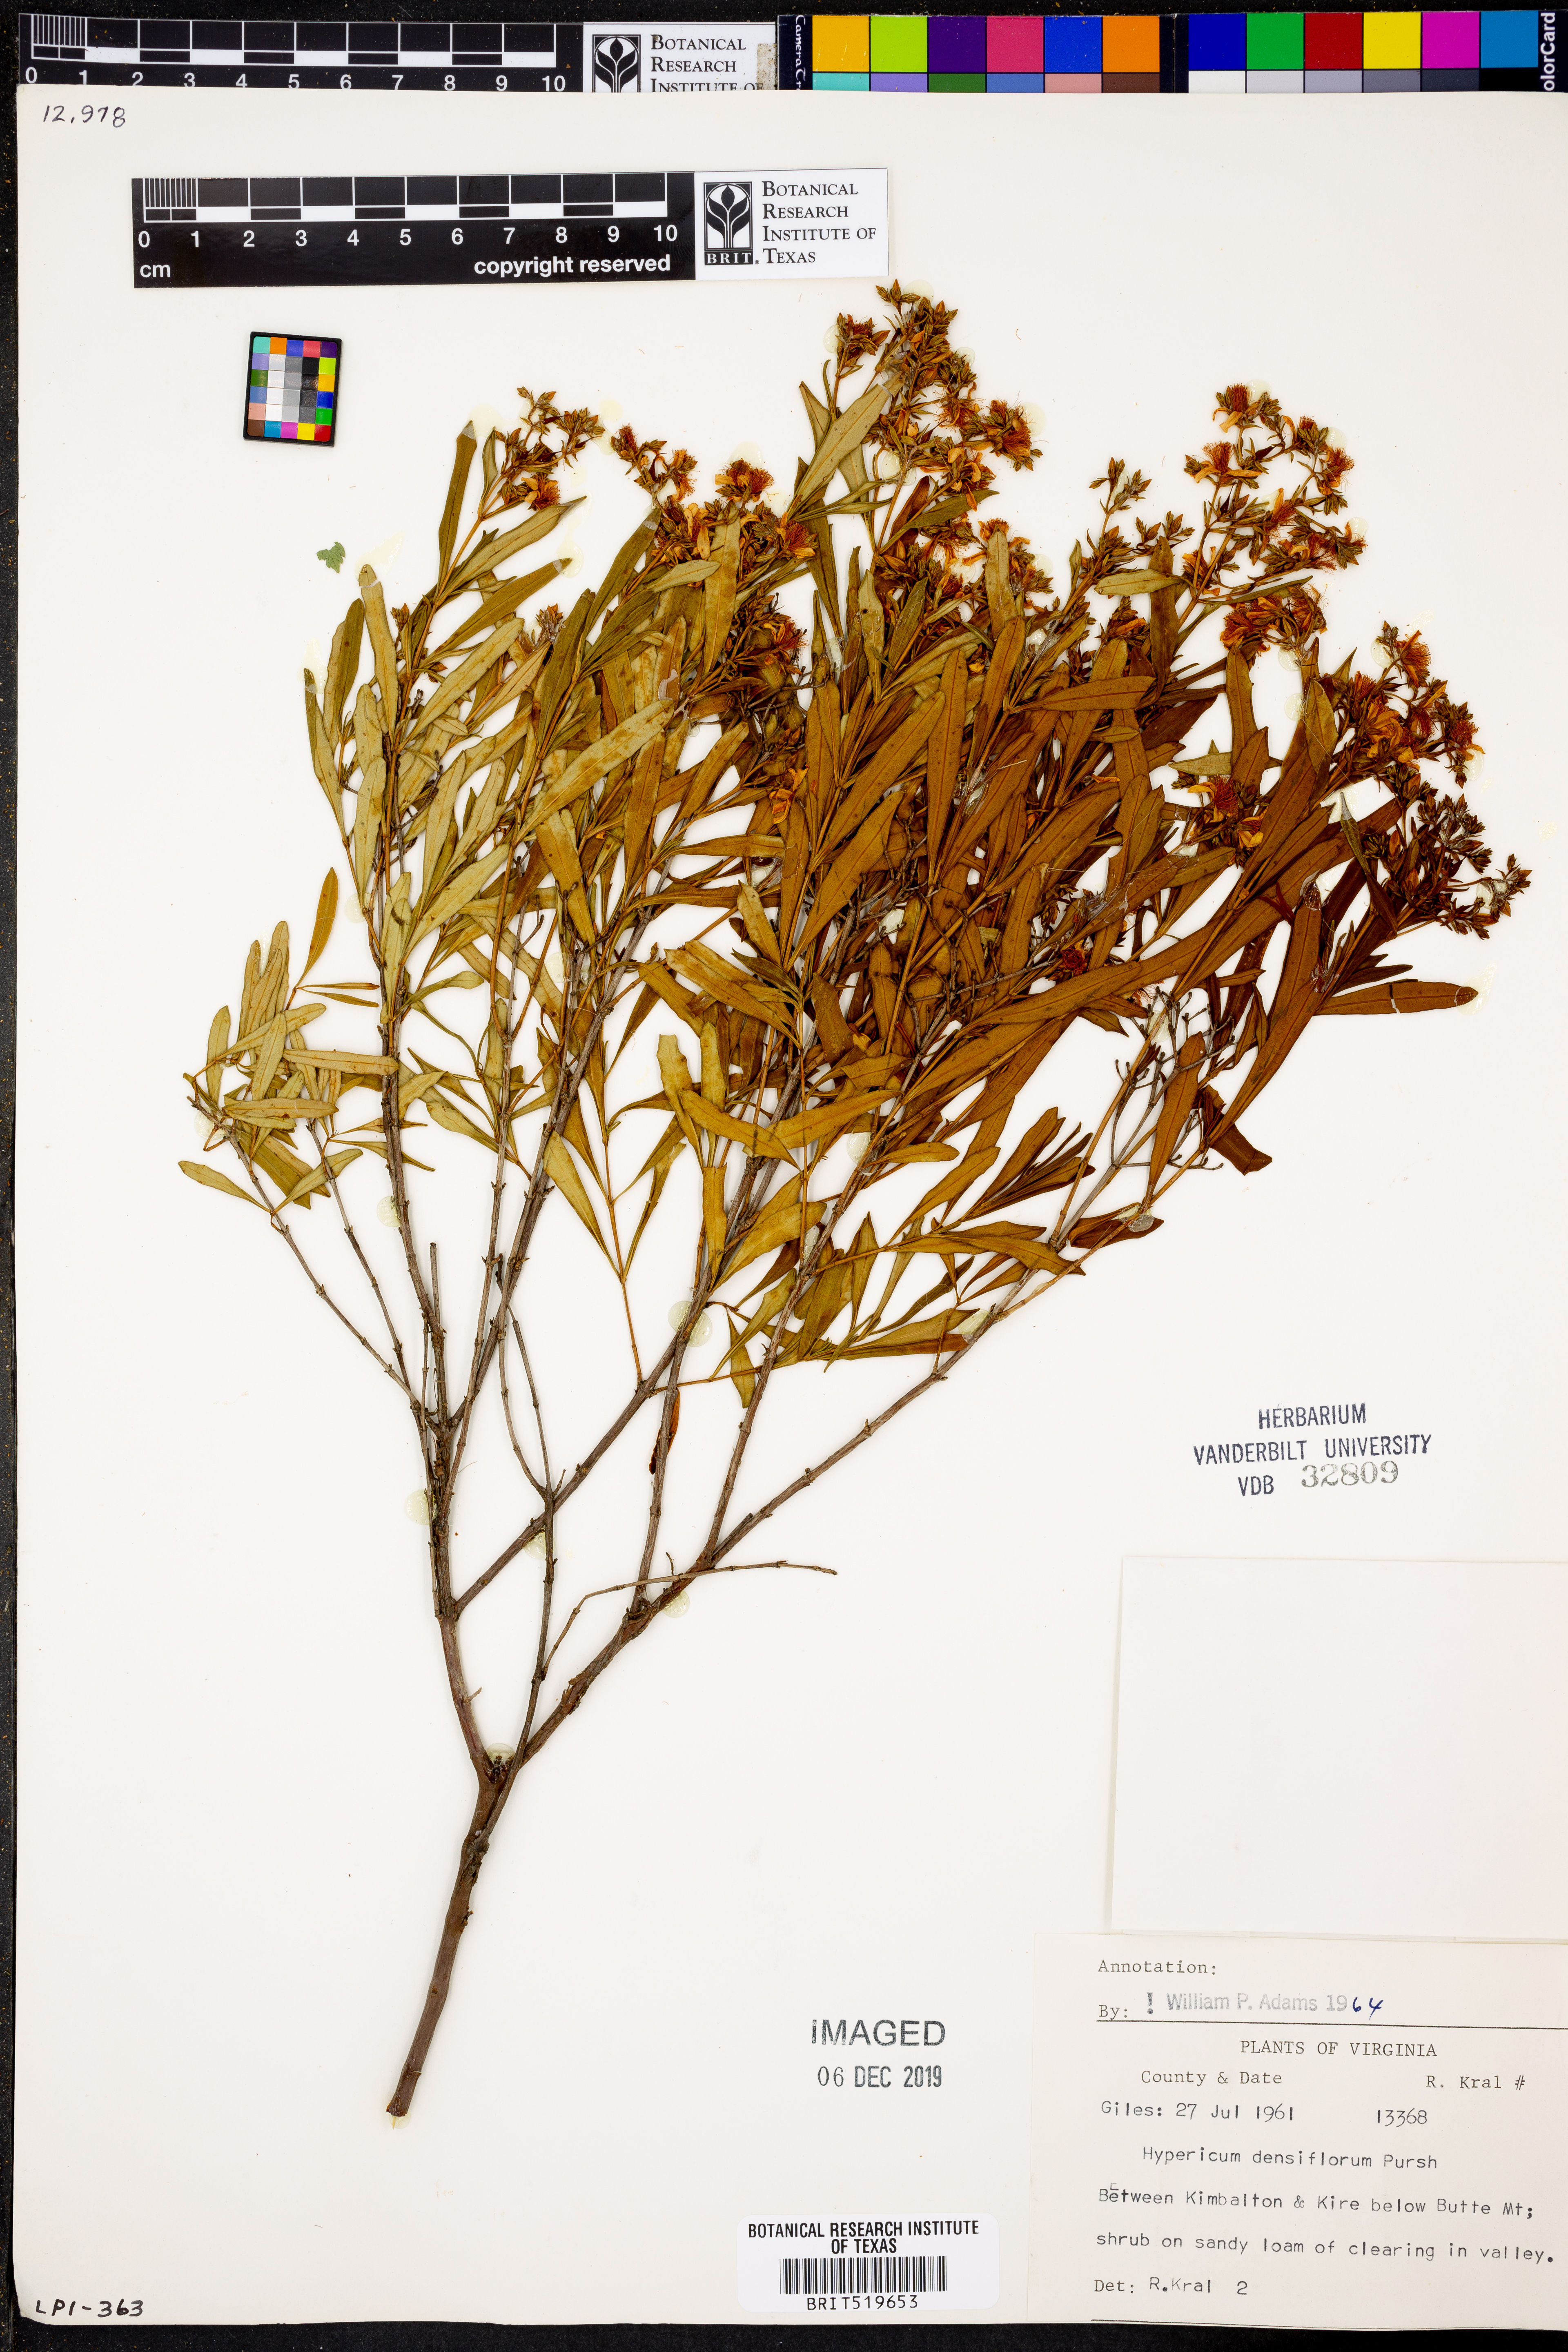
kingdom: Plantae
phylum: Tracheophyta
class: Magnoliopsida
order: Malpighiales
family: Hypericaceae
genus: Hypericum
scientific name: Hypericum densiflorum
